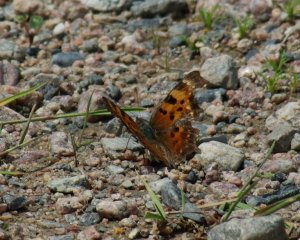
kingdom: Animalia
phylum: Arthropoda
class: Insecta
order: Lepidoptera
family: Nymphalidae
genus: Polygonia
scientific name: Polygonia faunus
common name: Green Comma
